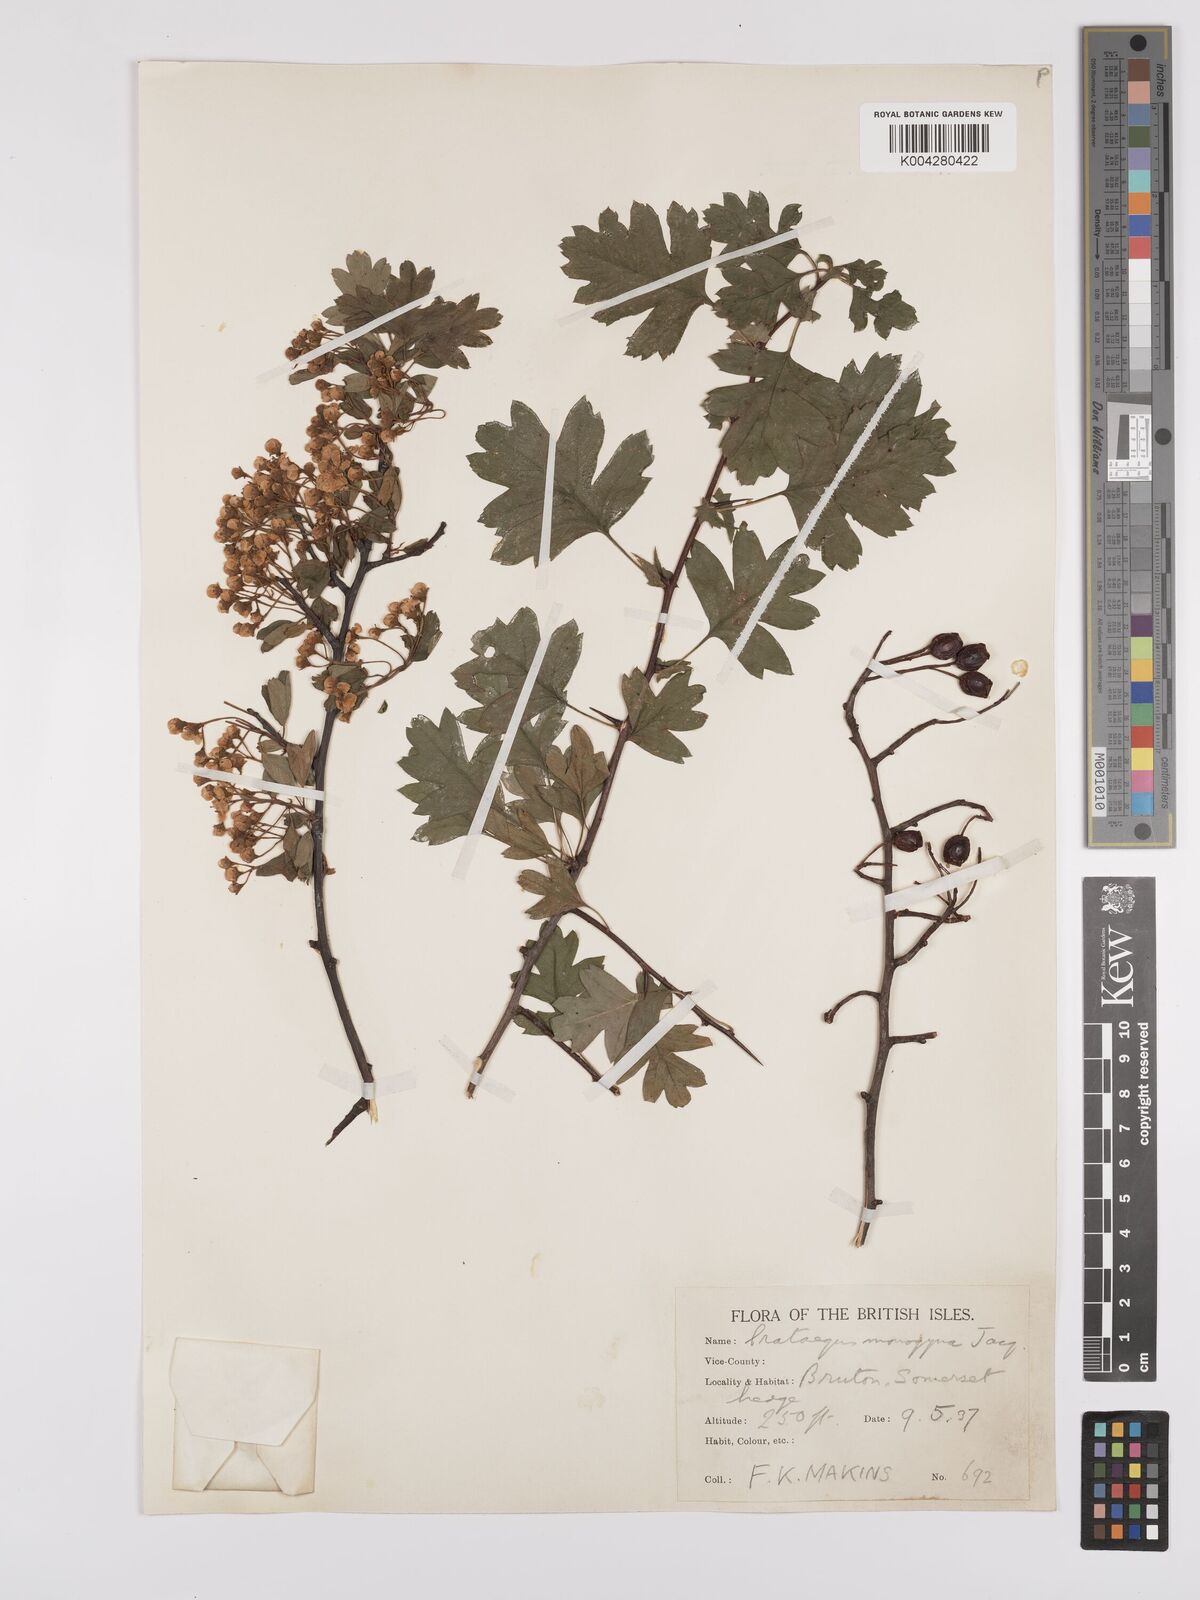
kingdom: Plantae
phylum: Tracheophyta
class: Magnoliopsida
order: Rosales
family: Rosaceae
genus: Crataegus
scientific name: Crataegus monogyna
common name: Hawthorn
